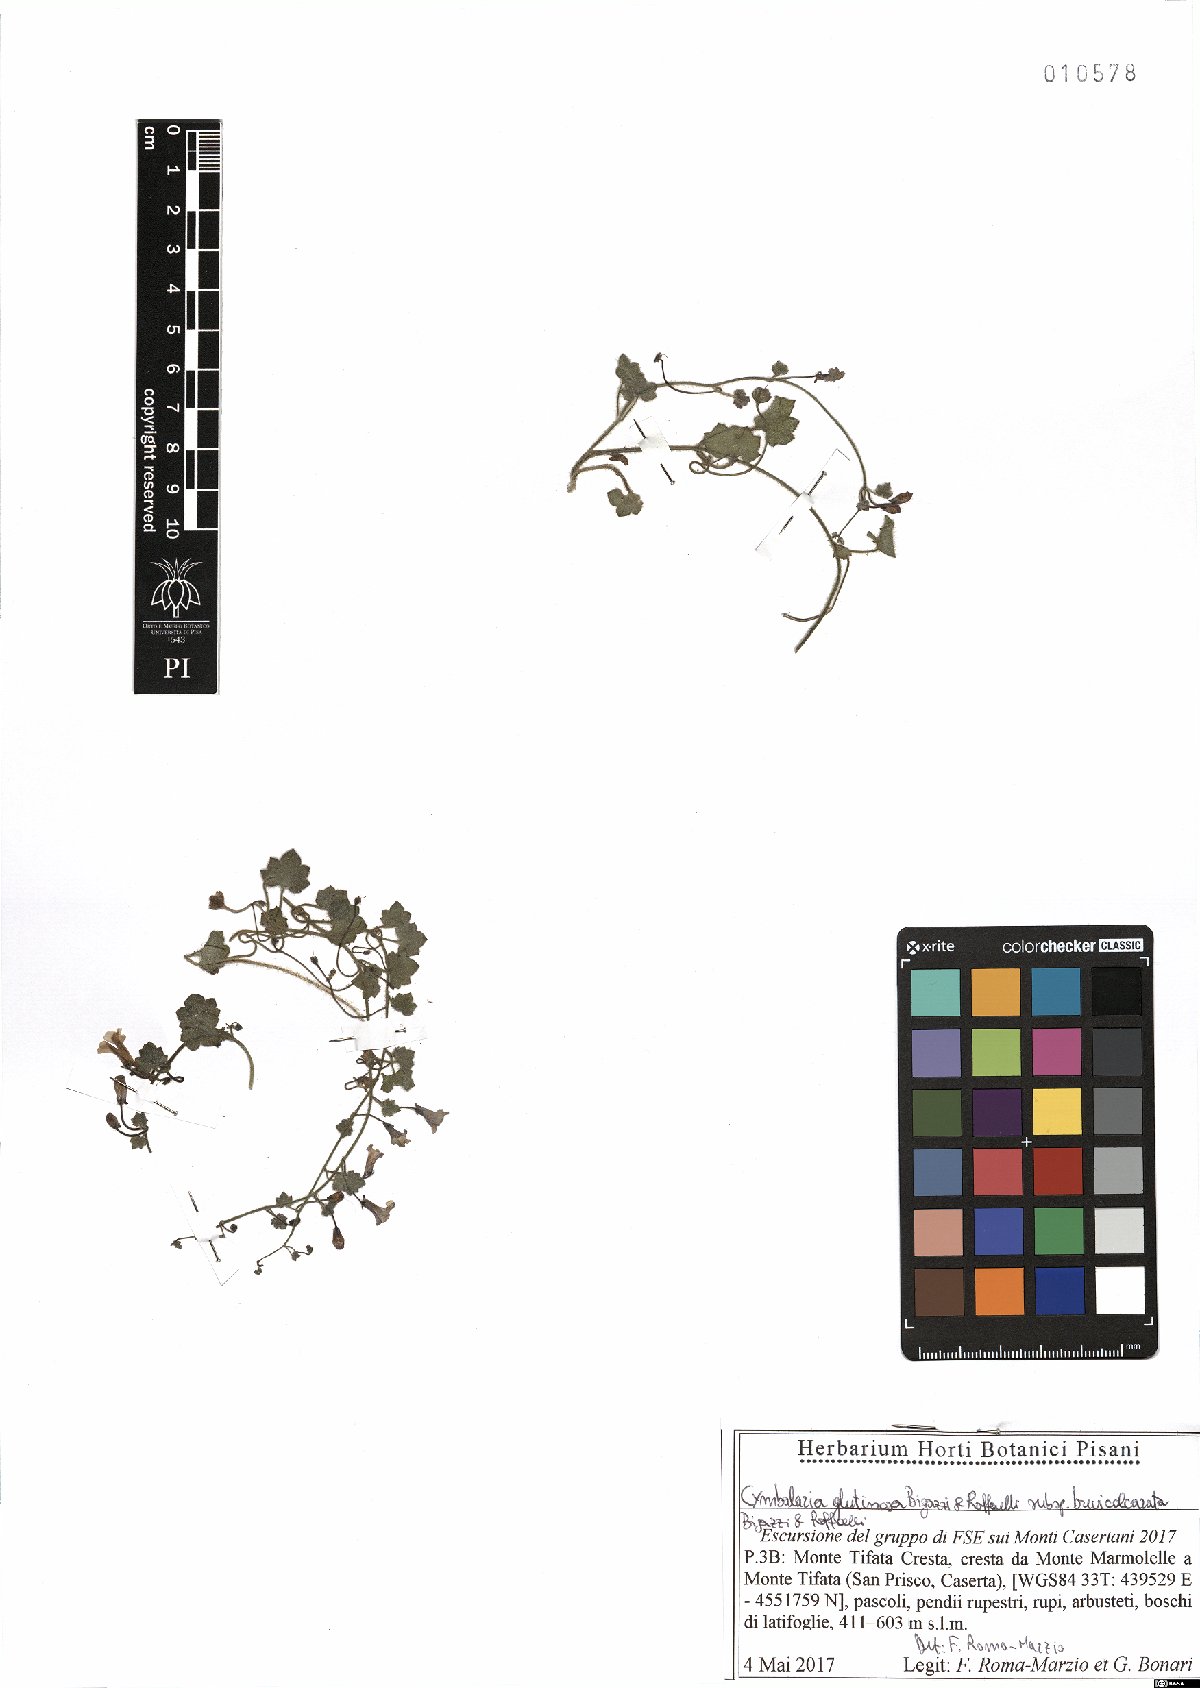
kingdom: Plantae
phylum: Tracheophyta
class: Magnoliopsida
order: Lamiales
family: Plantaginaceae
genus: Cymbalaria
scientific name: Cymbalaria glutinosa
